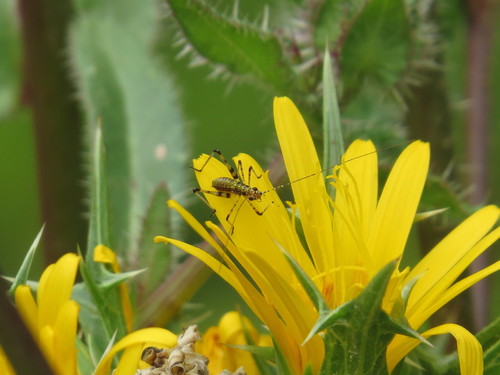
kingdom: Animalia
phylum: Arthropoda
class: Insecta
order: Orthoptera
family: Tettigoniidae
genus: Phaneroptera
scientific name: Phaneroptera nana
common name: Southern sickle bush-cricket
